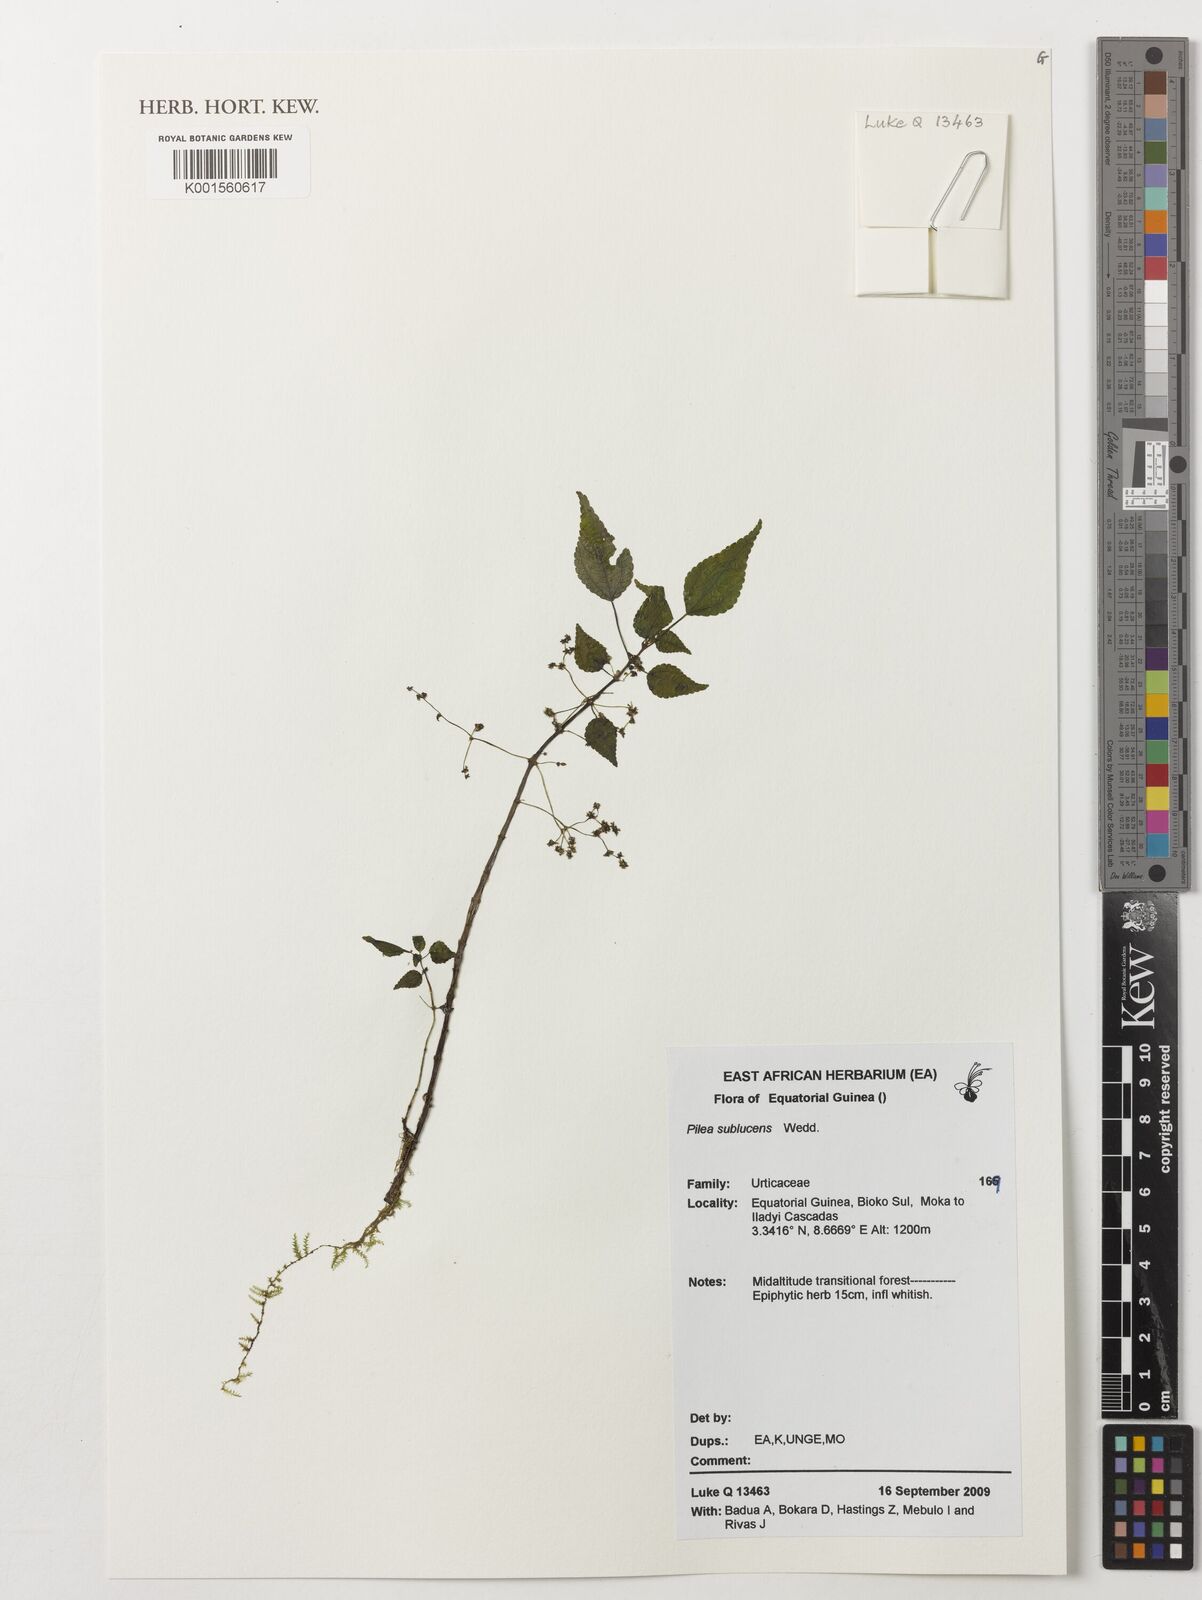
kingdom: Plantae
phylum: Tracheophyta
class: Magnoliopsida
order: Rosales
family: Urticaceae
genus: Pilea
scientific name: Pilea sublucens
